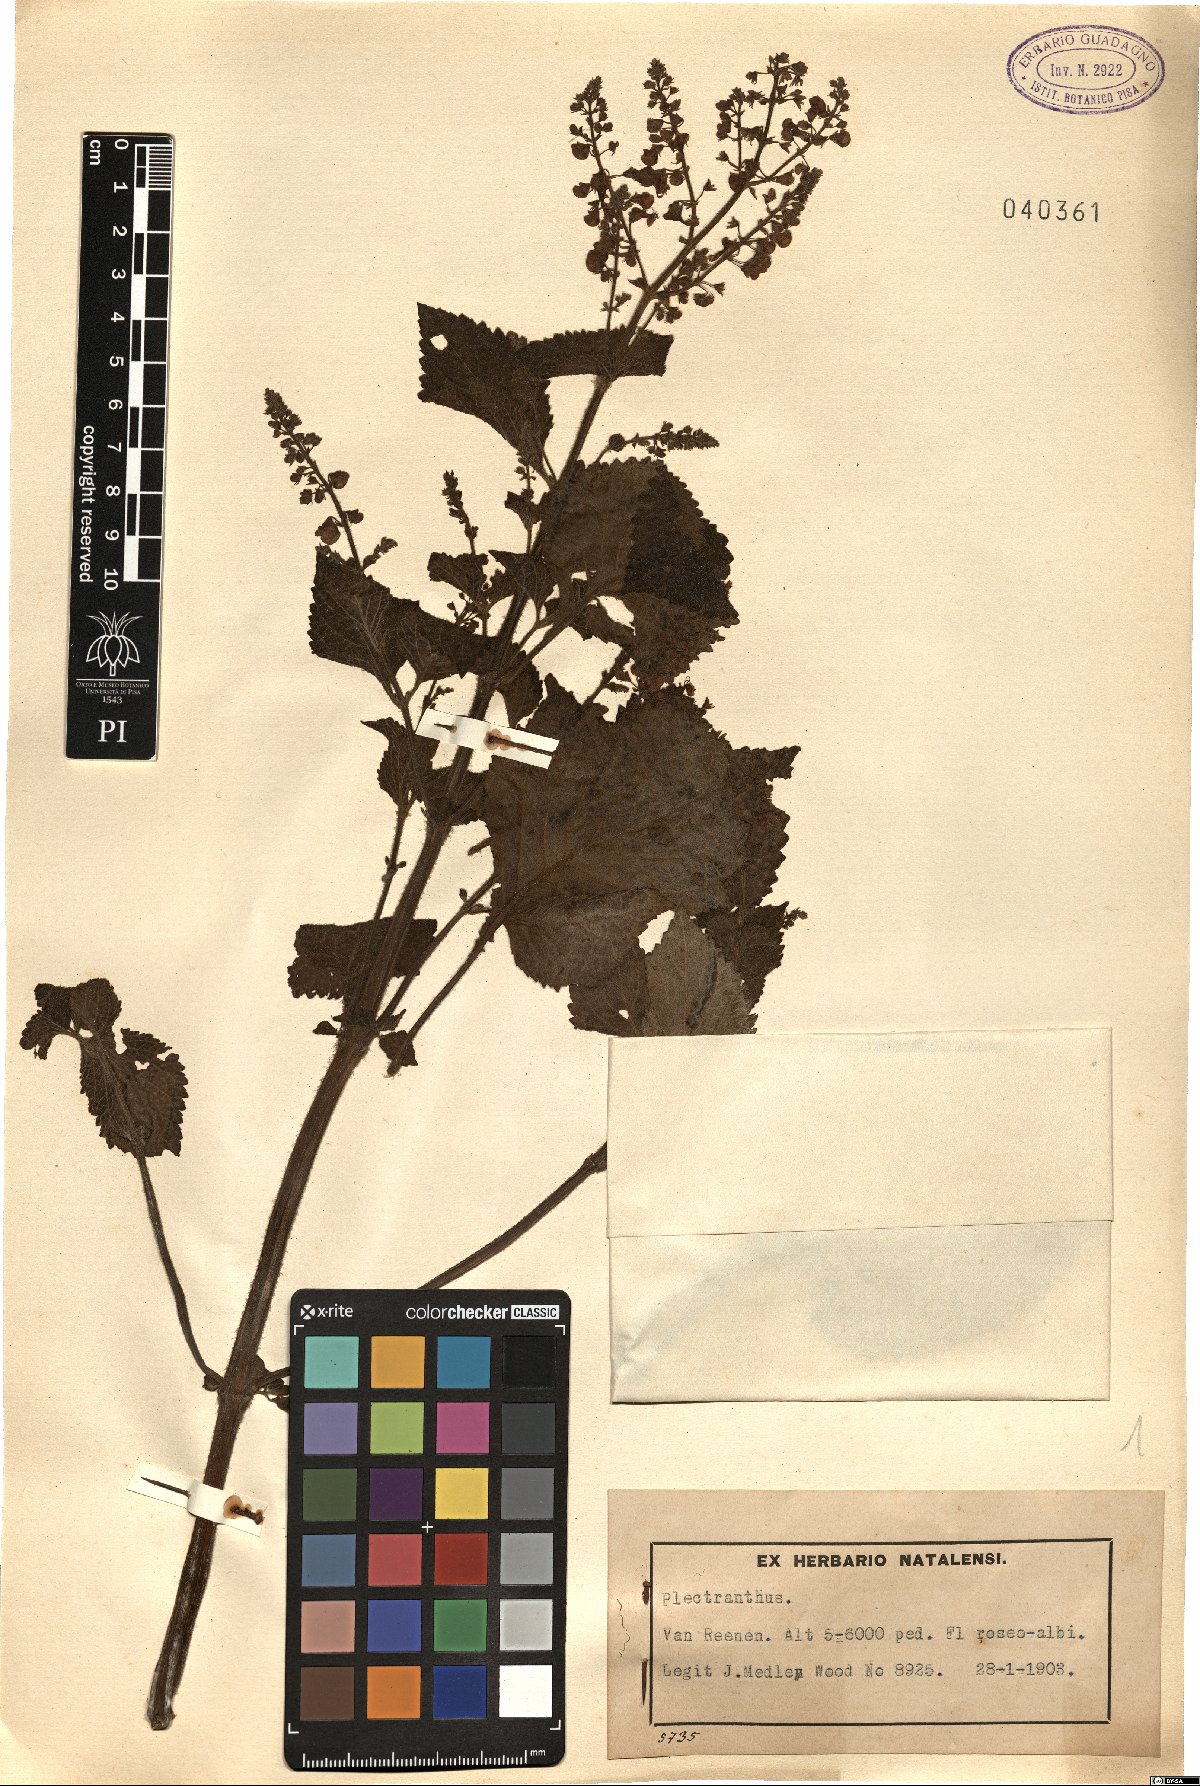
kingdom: Plantae
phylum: Tracheophyta
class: Magnoliopsida
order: Lamiales
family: Lamiaceae
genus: Plectranthus
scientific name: Plectranthus
